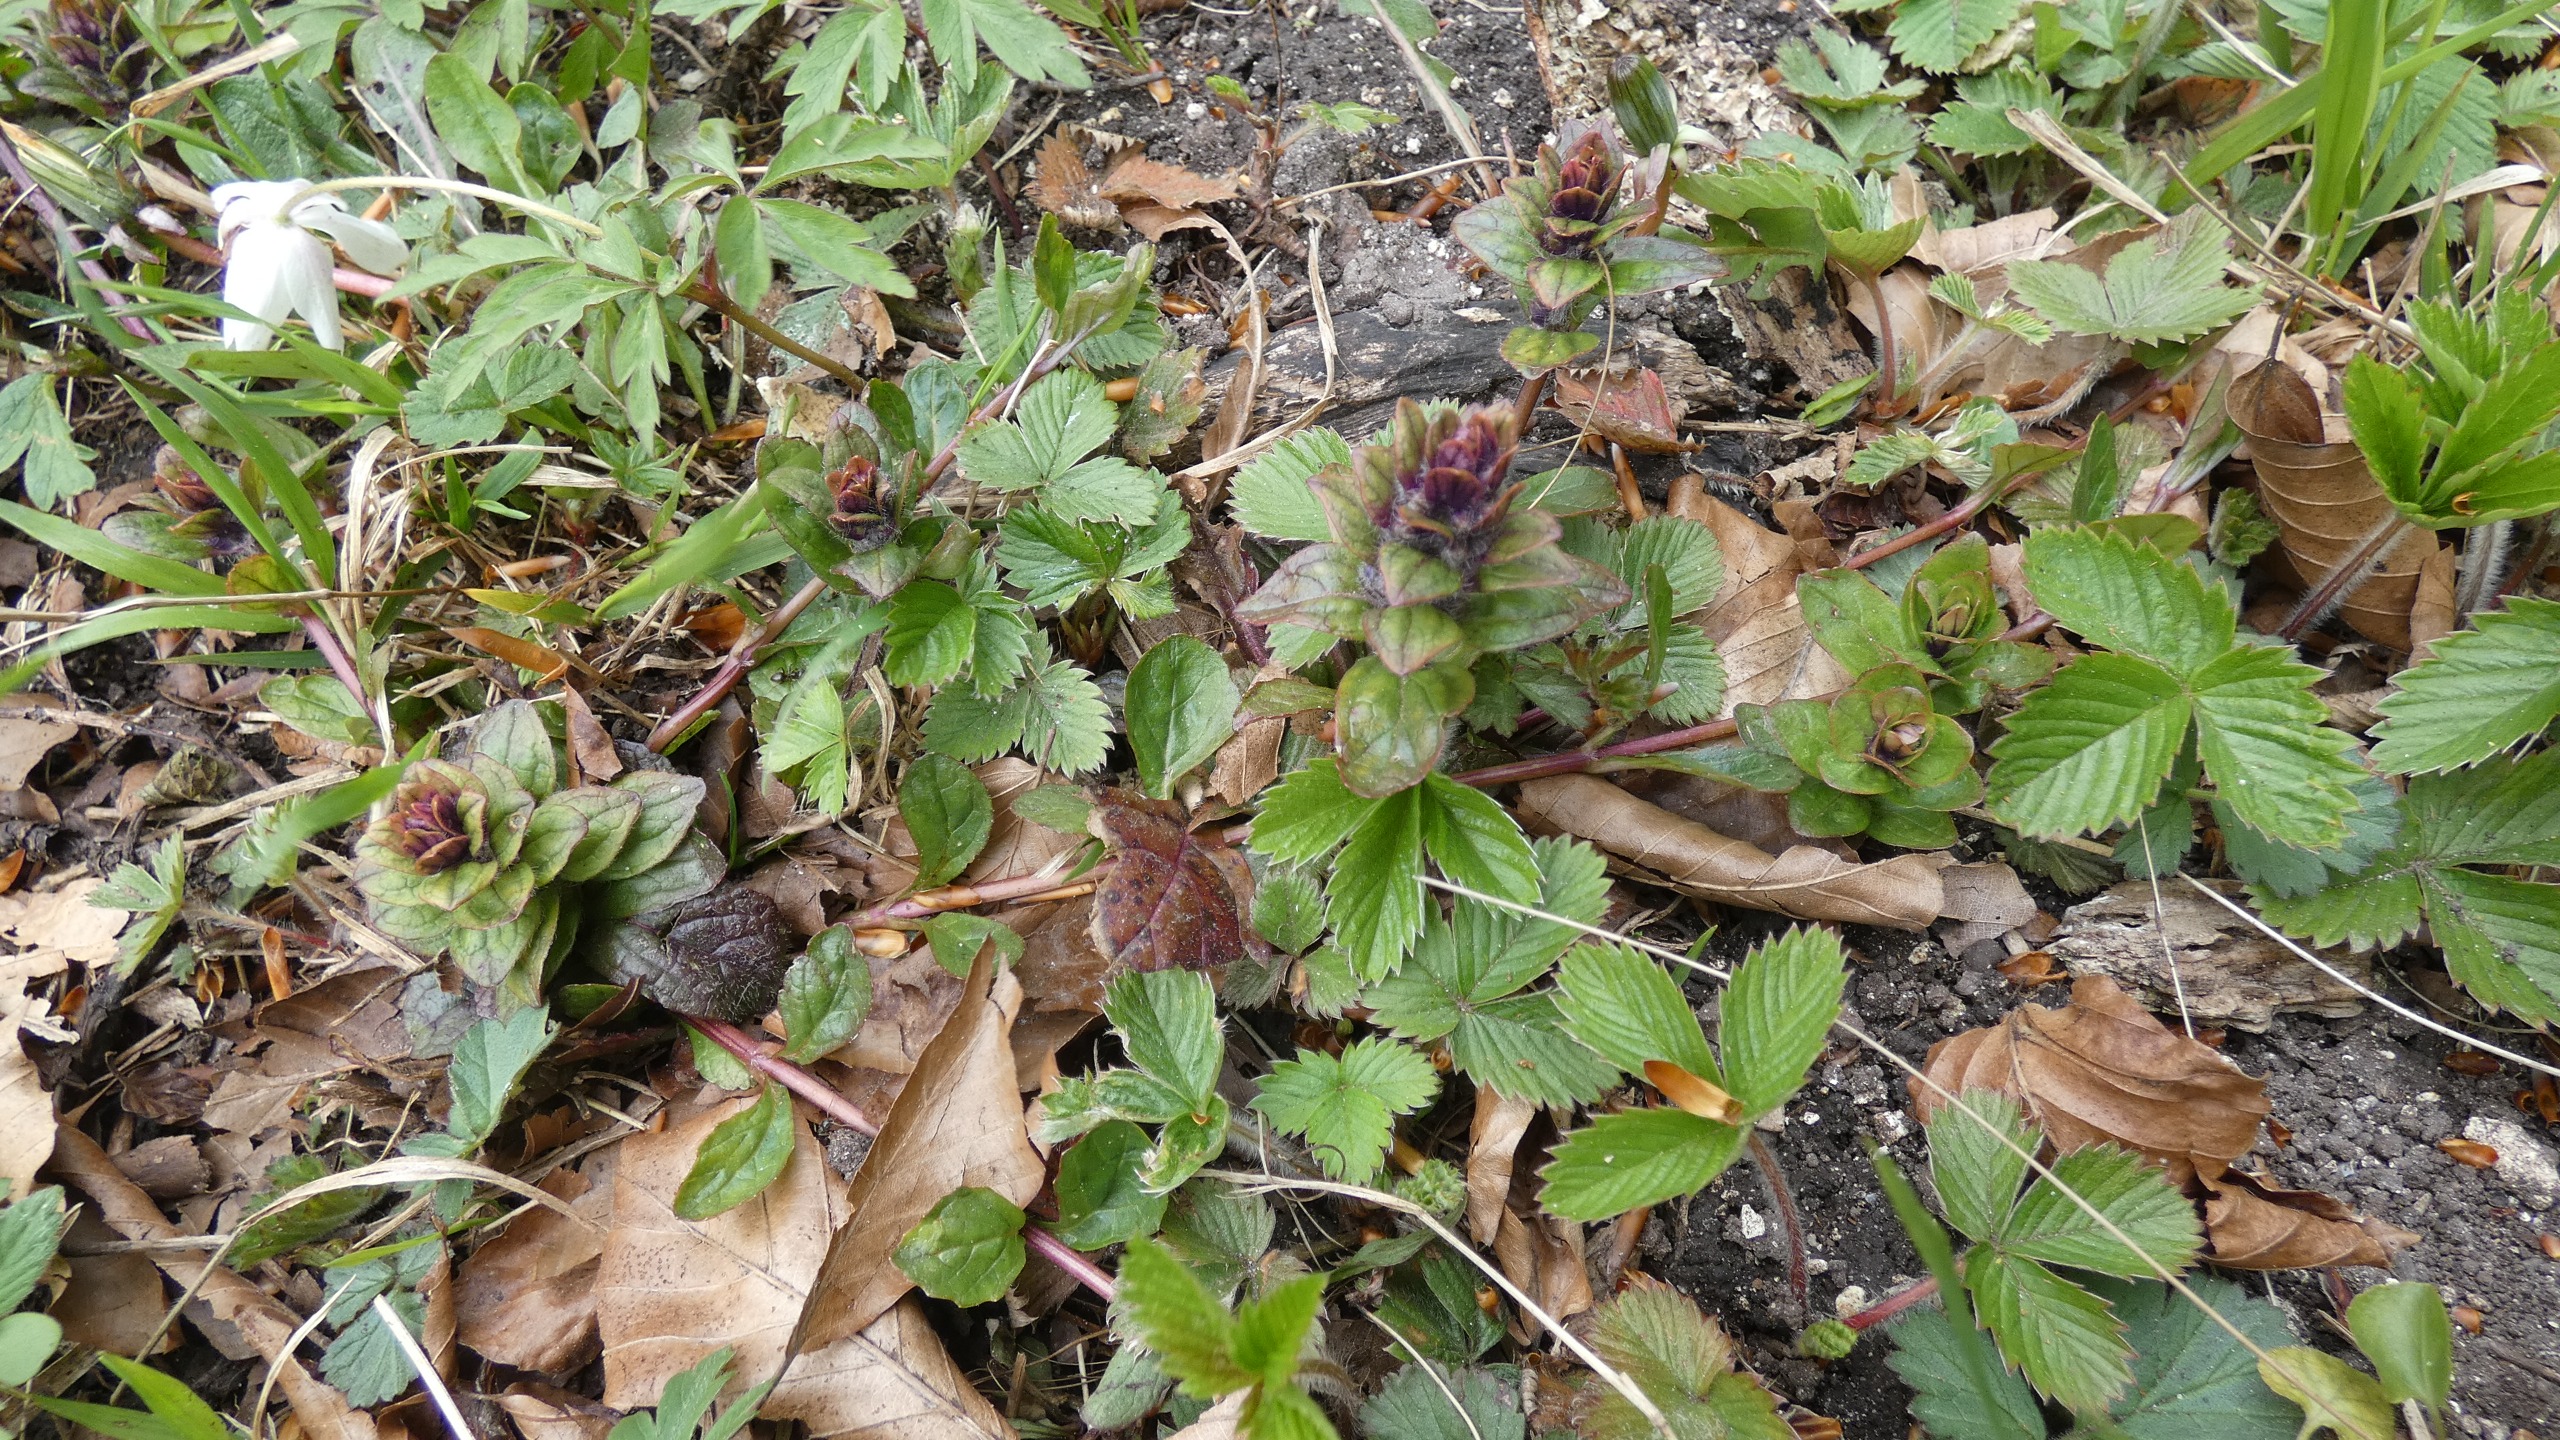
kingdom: Plantae
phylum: Tracheophyta
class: Magnoliopsida
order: Lamiales
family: Lamiaceae
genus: Ajuga
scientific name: Ajuga reptans
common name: Krybende læbeløs
